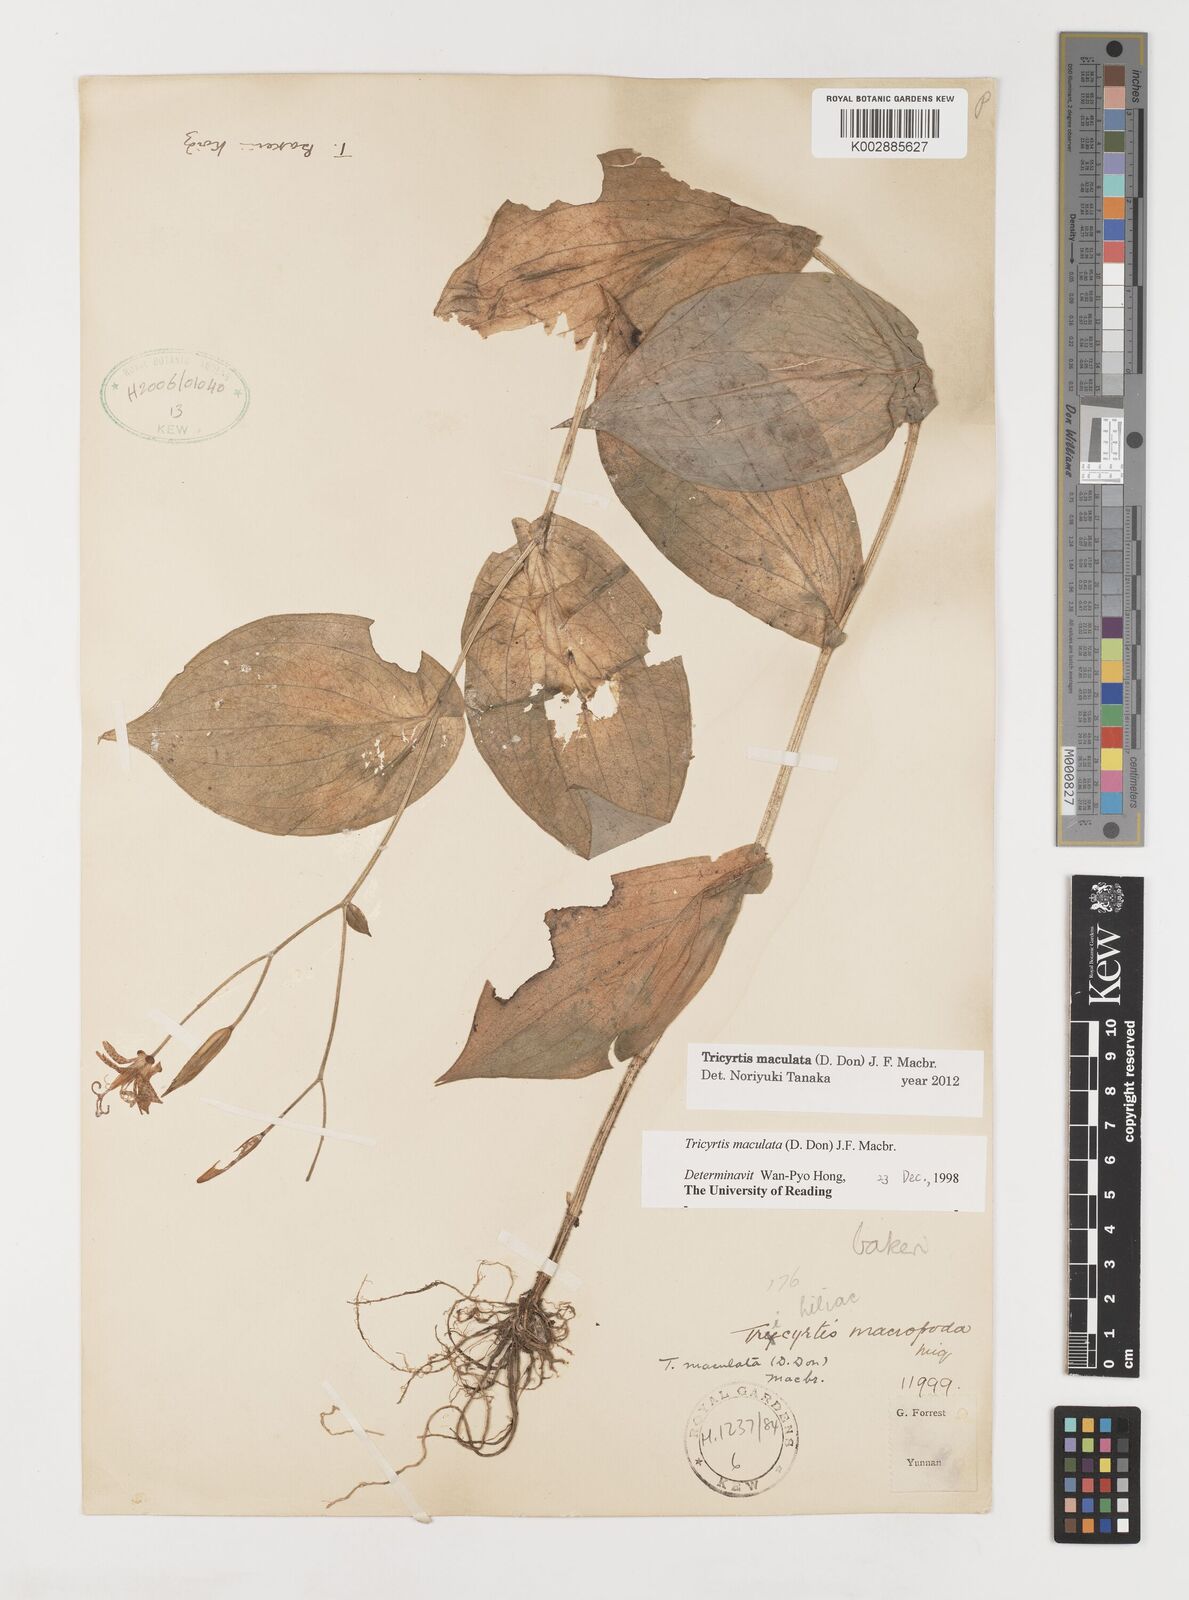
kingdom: Plantae
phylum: Tracheophyta
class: Liliopsida
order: Liliales
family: Liliaceae
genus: Tricyrtis
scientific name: Tricyrtis maculata
